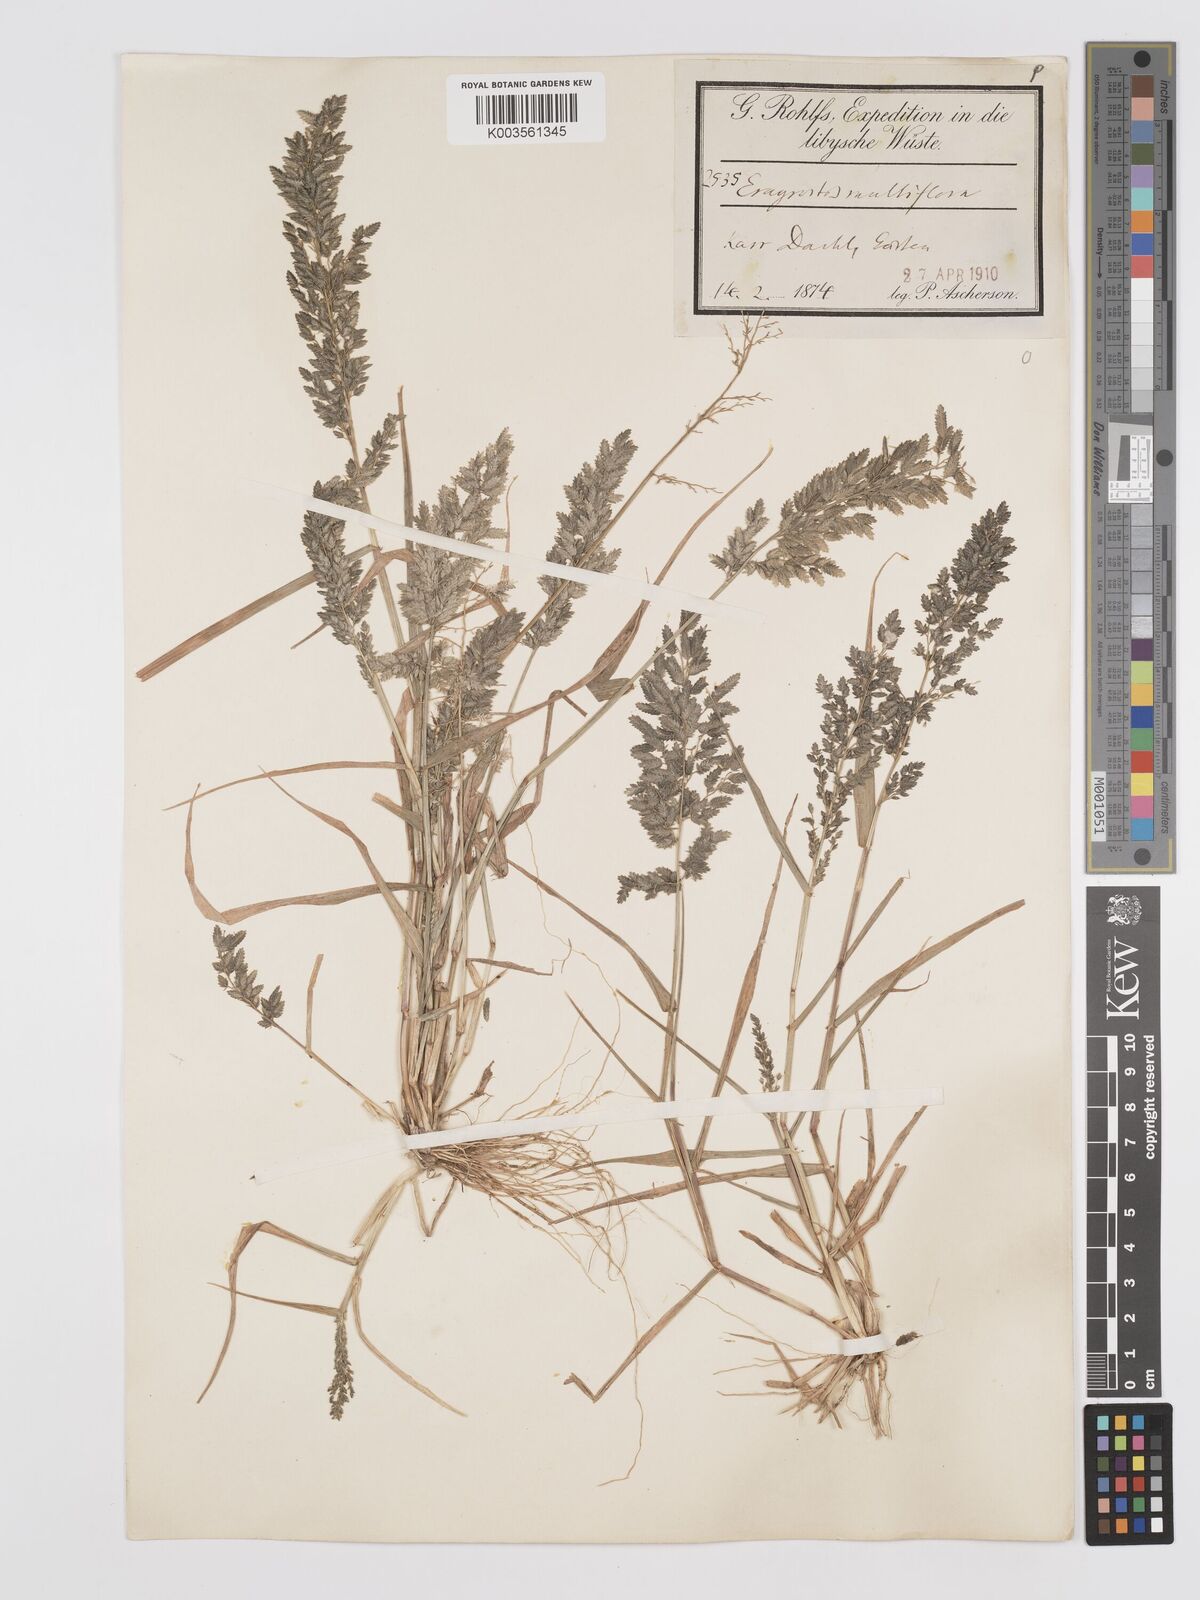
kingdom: Plantae
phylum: Tracheophyta
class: Liliopsida
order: Poales
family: Poaceae
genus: Eragrostis
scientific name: Eragrostis cilianensis
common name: Stinkgrass
